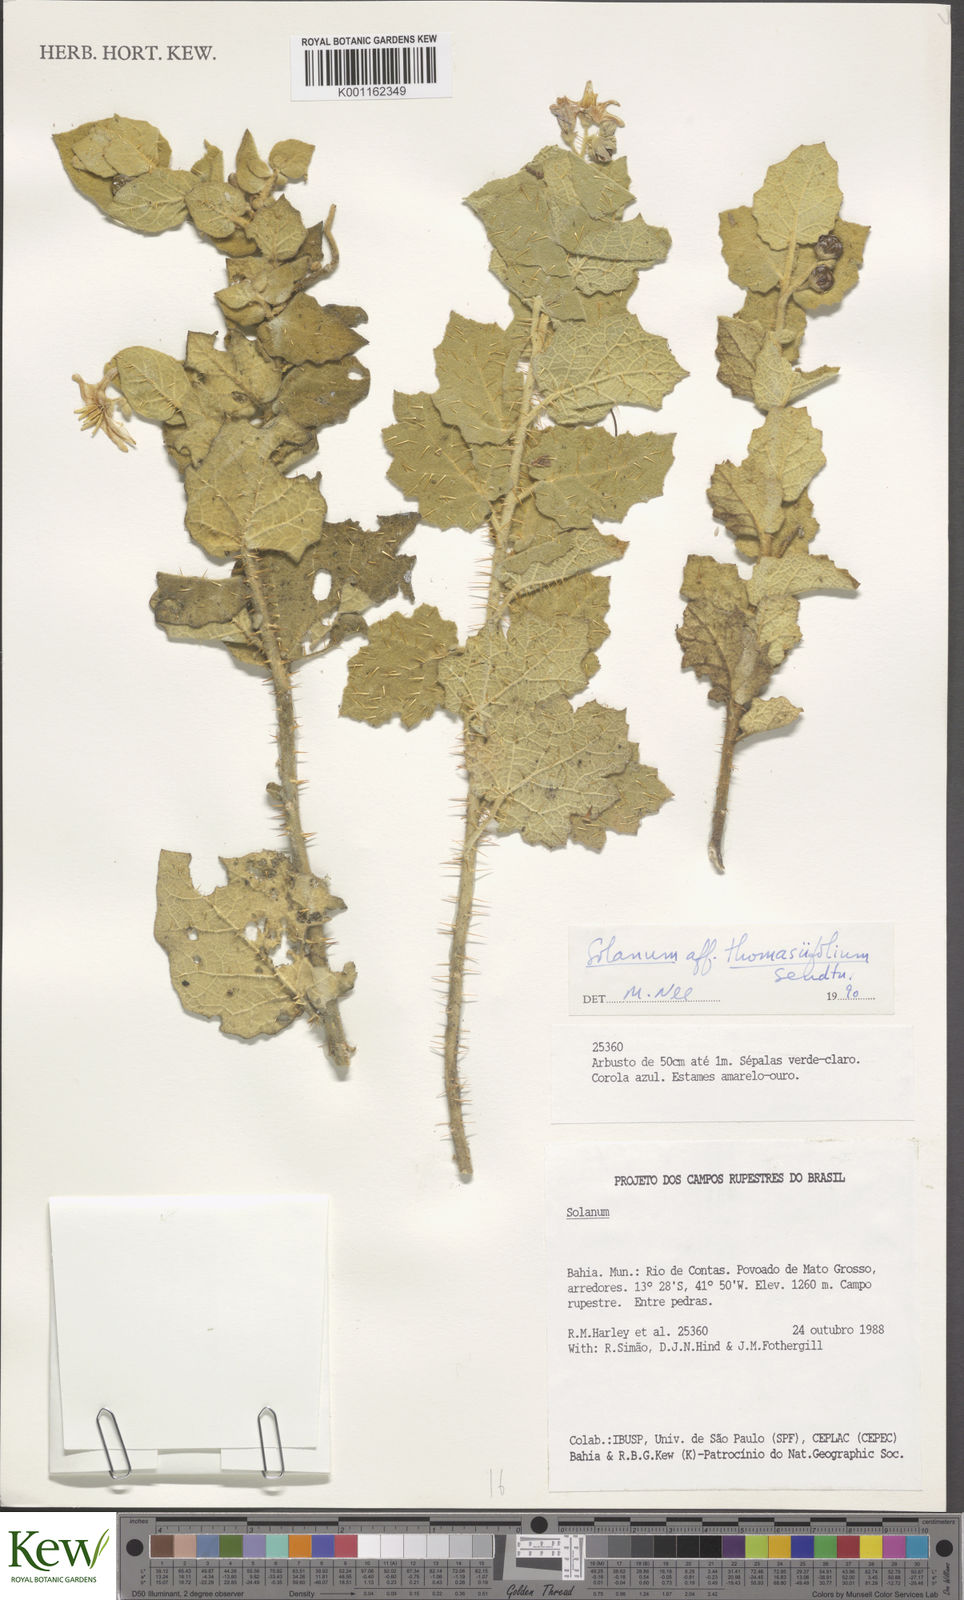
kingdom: Plantae
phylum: Tracheophyta
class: Magnoliopsida
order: Solanales
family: Solanaceae
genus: Solanum
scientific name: Solanum thomasiifolium
